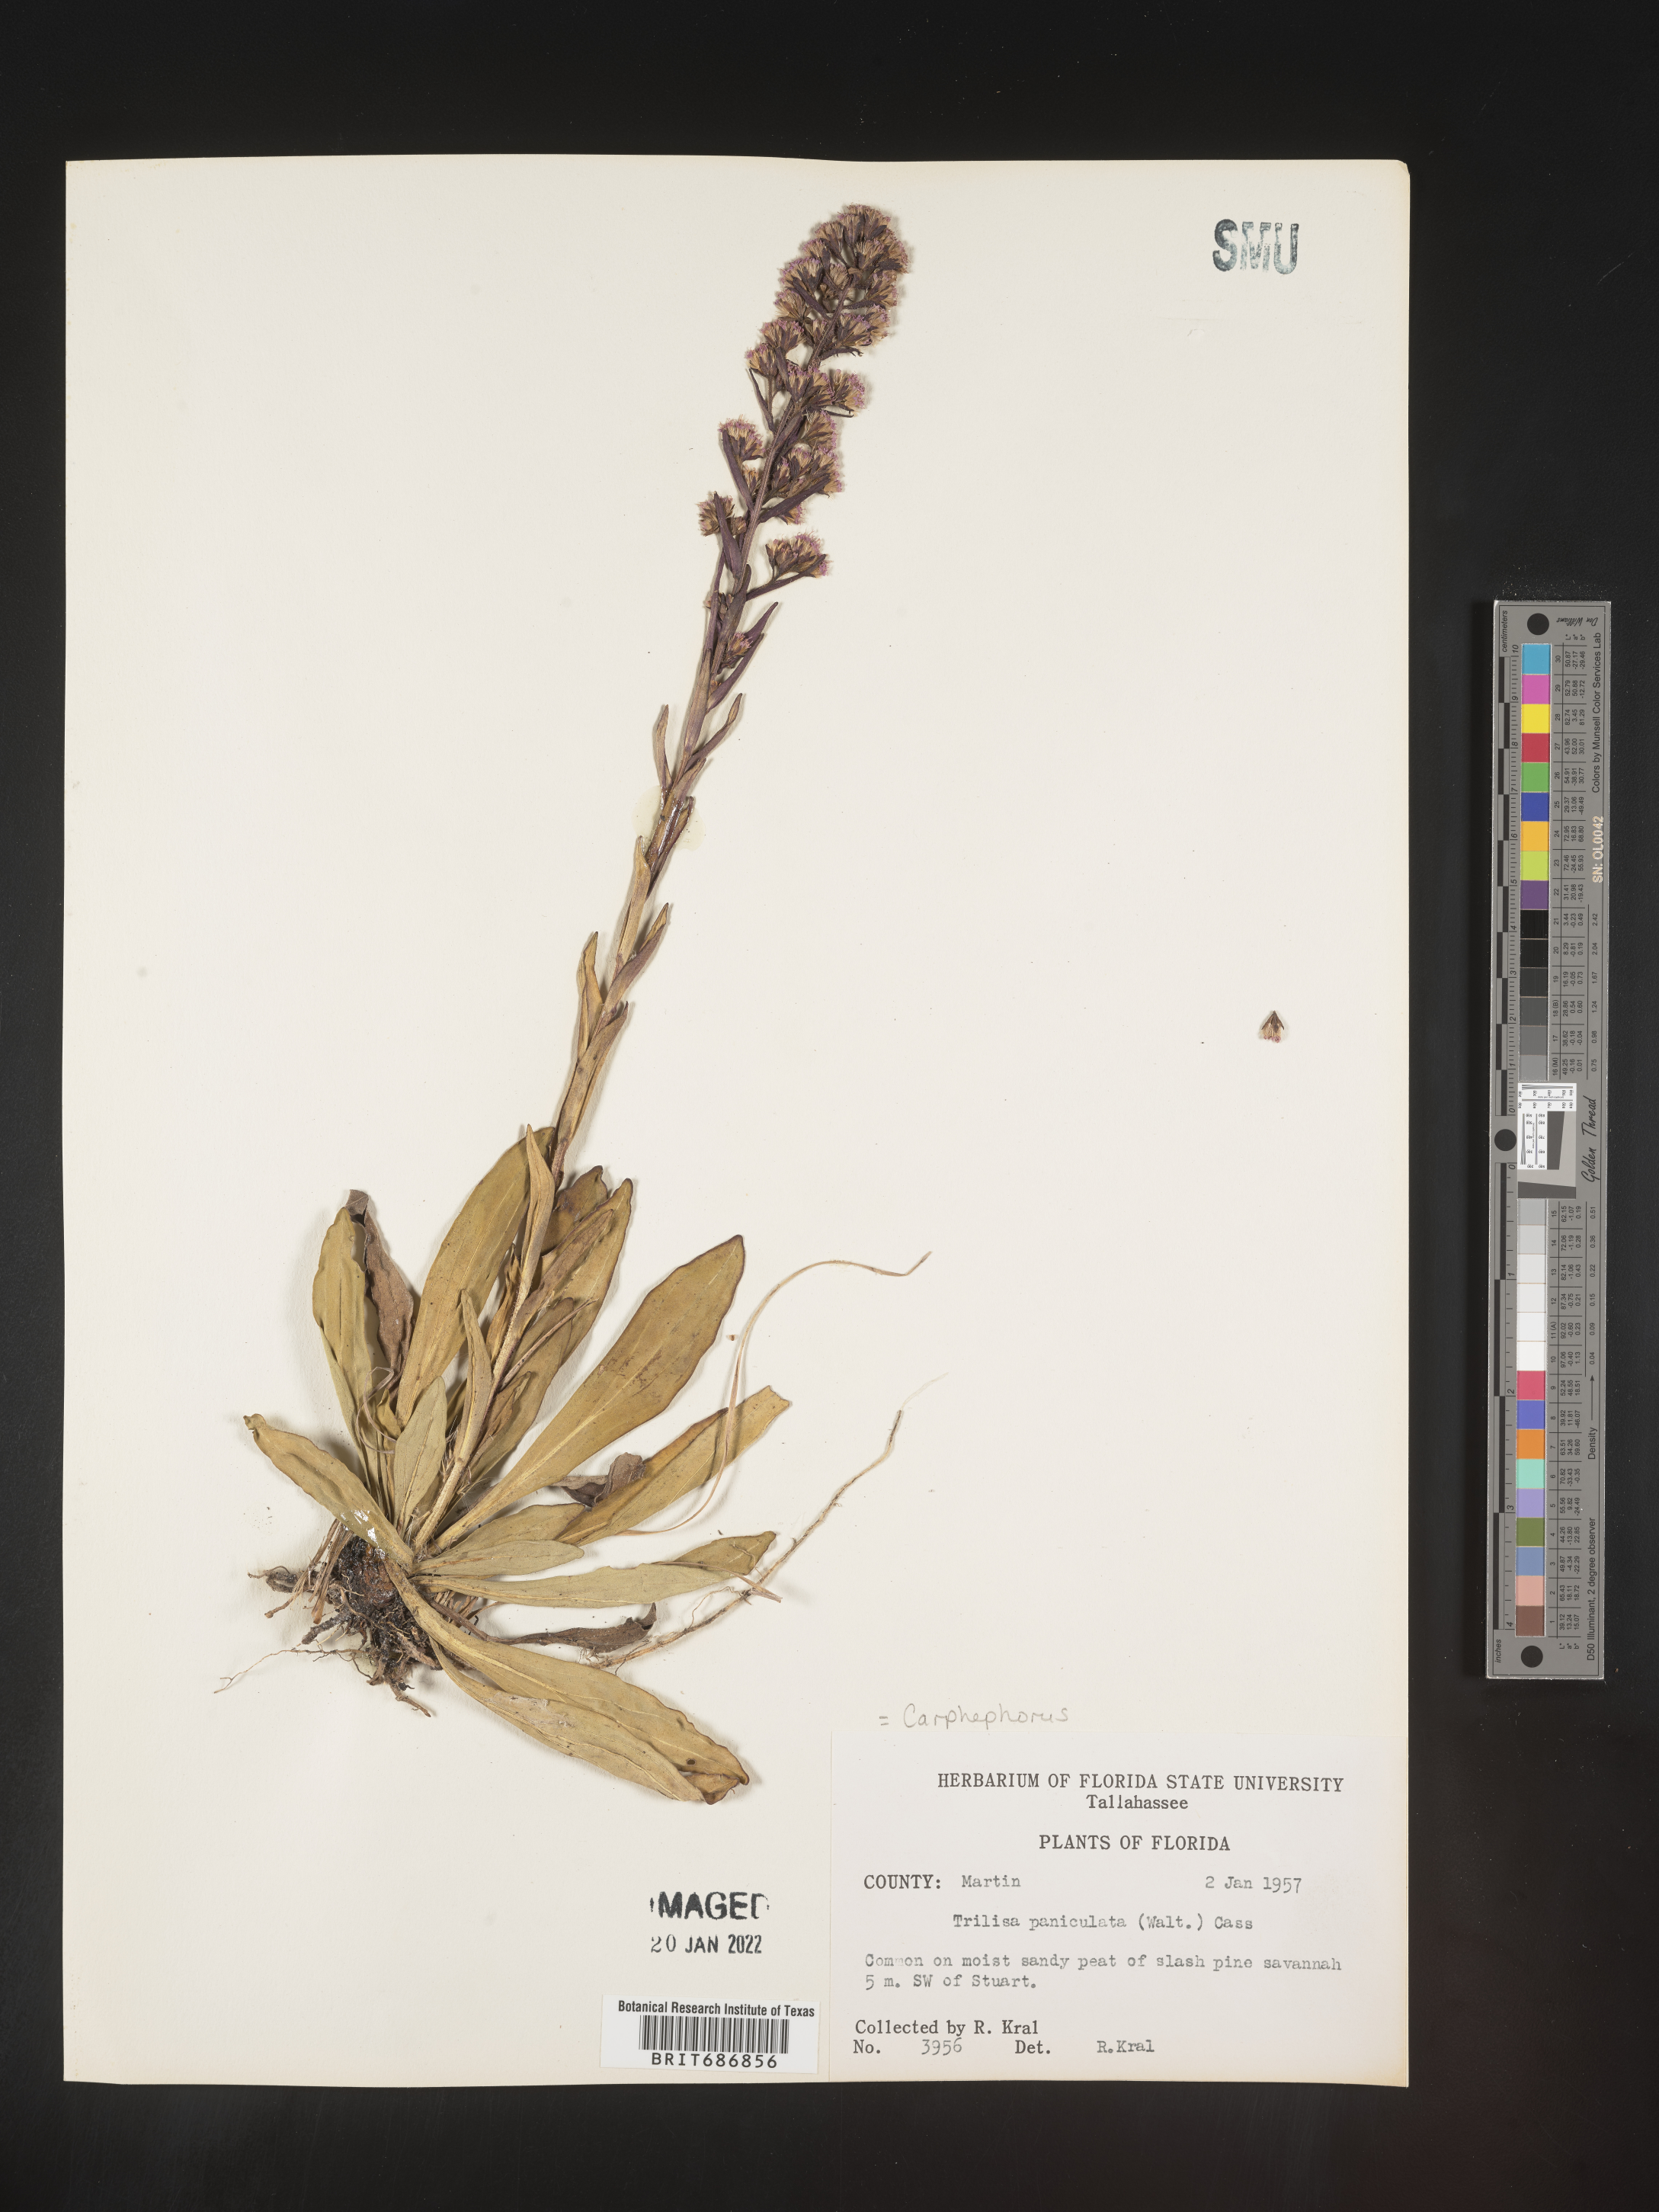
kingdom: Plantae
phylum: Tracheophyta
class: Magnoliopsida
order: Asterales
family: Asteraceae
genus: Carphephorus
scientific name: Carphephorus paniculatus
